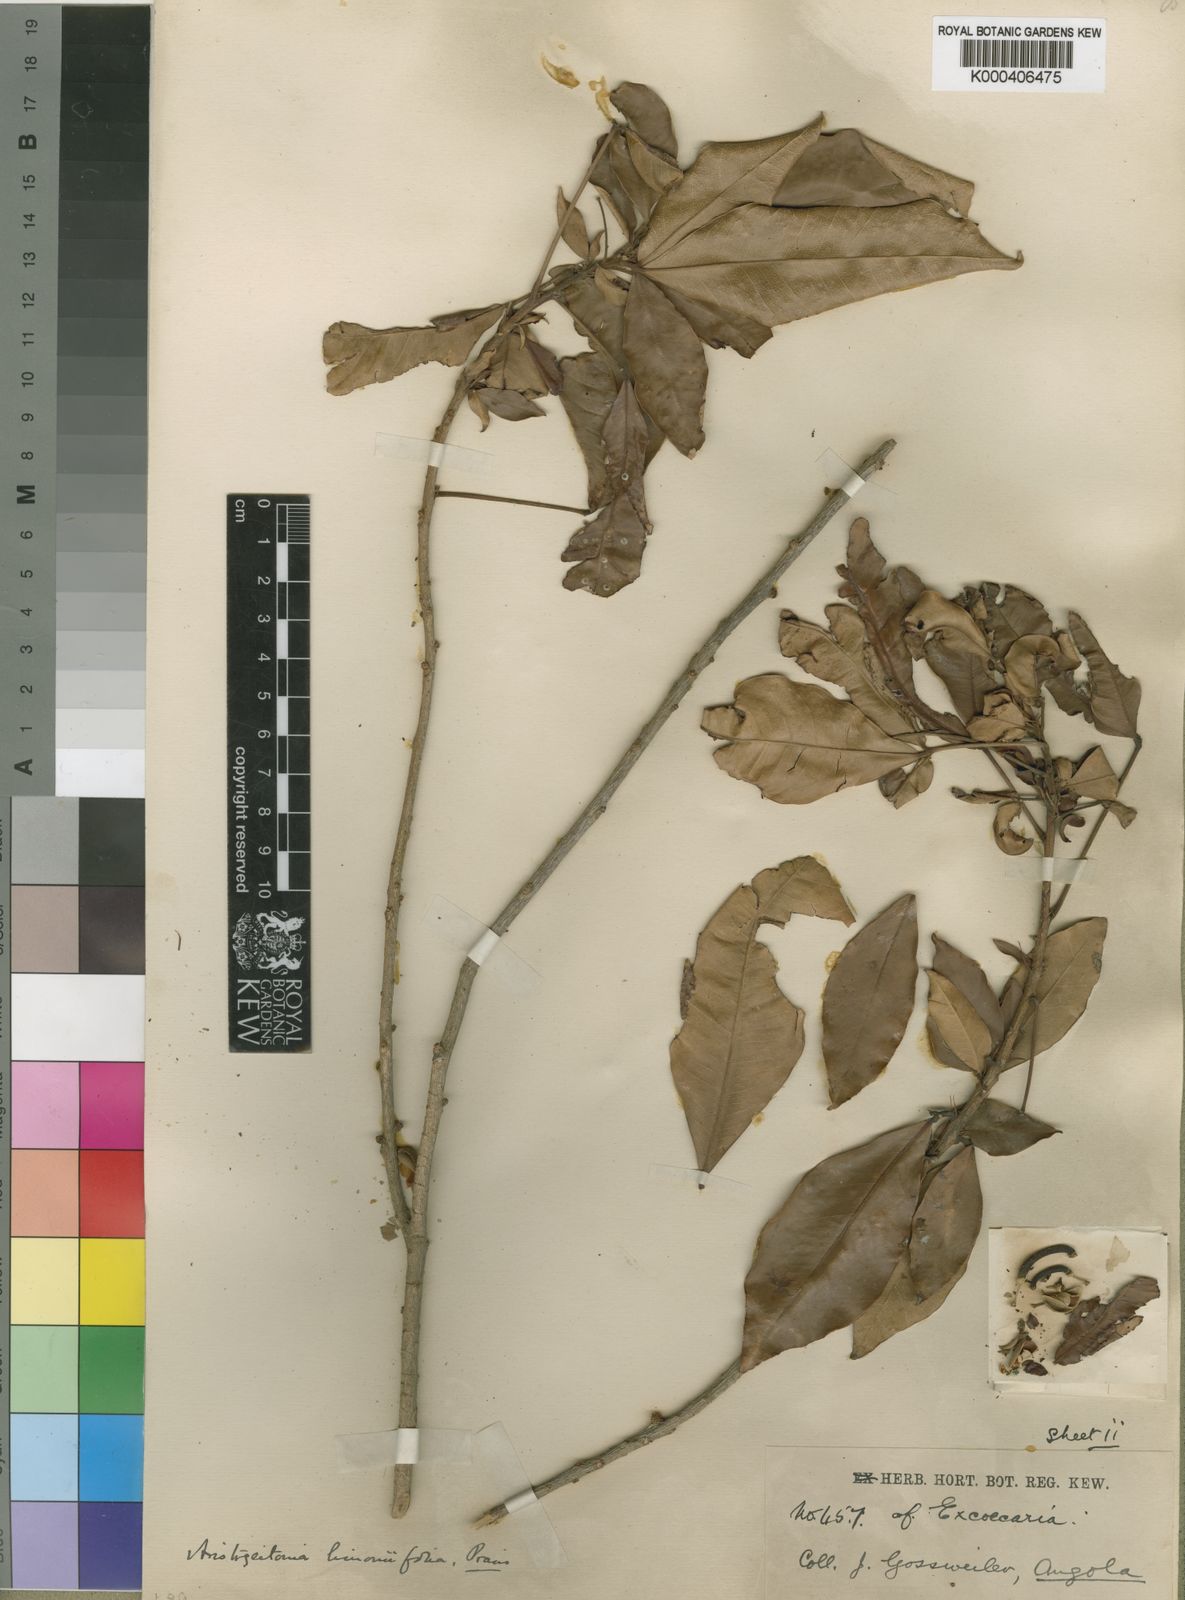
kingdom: Plantae
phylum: Tracheophyta
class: Magnoliopsida
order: Malpighiales
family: Picrodendraceae
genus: Aristogeitonia
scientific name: Aristogeitonia limoniifolia
